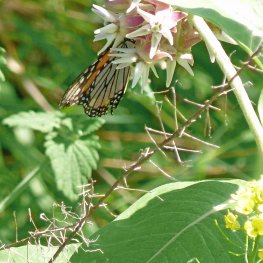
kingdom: Animalia
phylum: Arthropoda
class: Insecta
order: Lepidoptera
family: Nymphalidae
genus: Danaus
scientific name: Danaus plexippus
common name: Monarch
